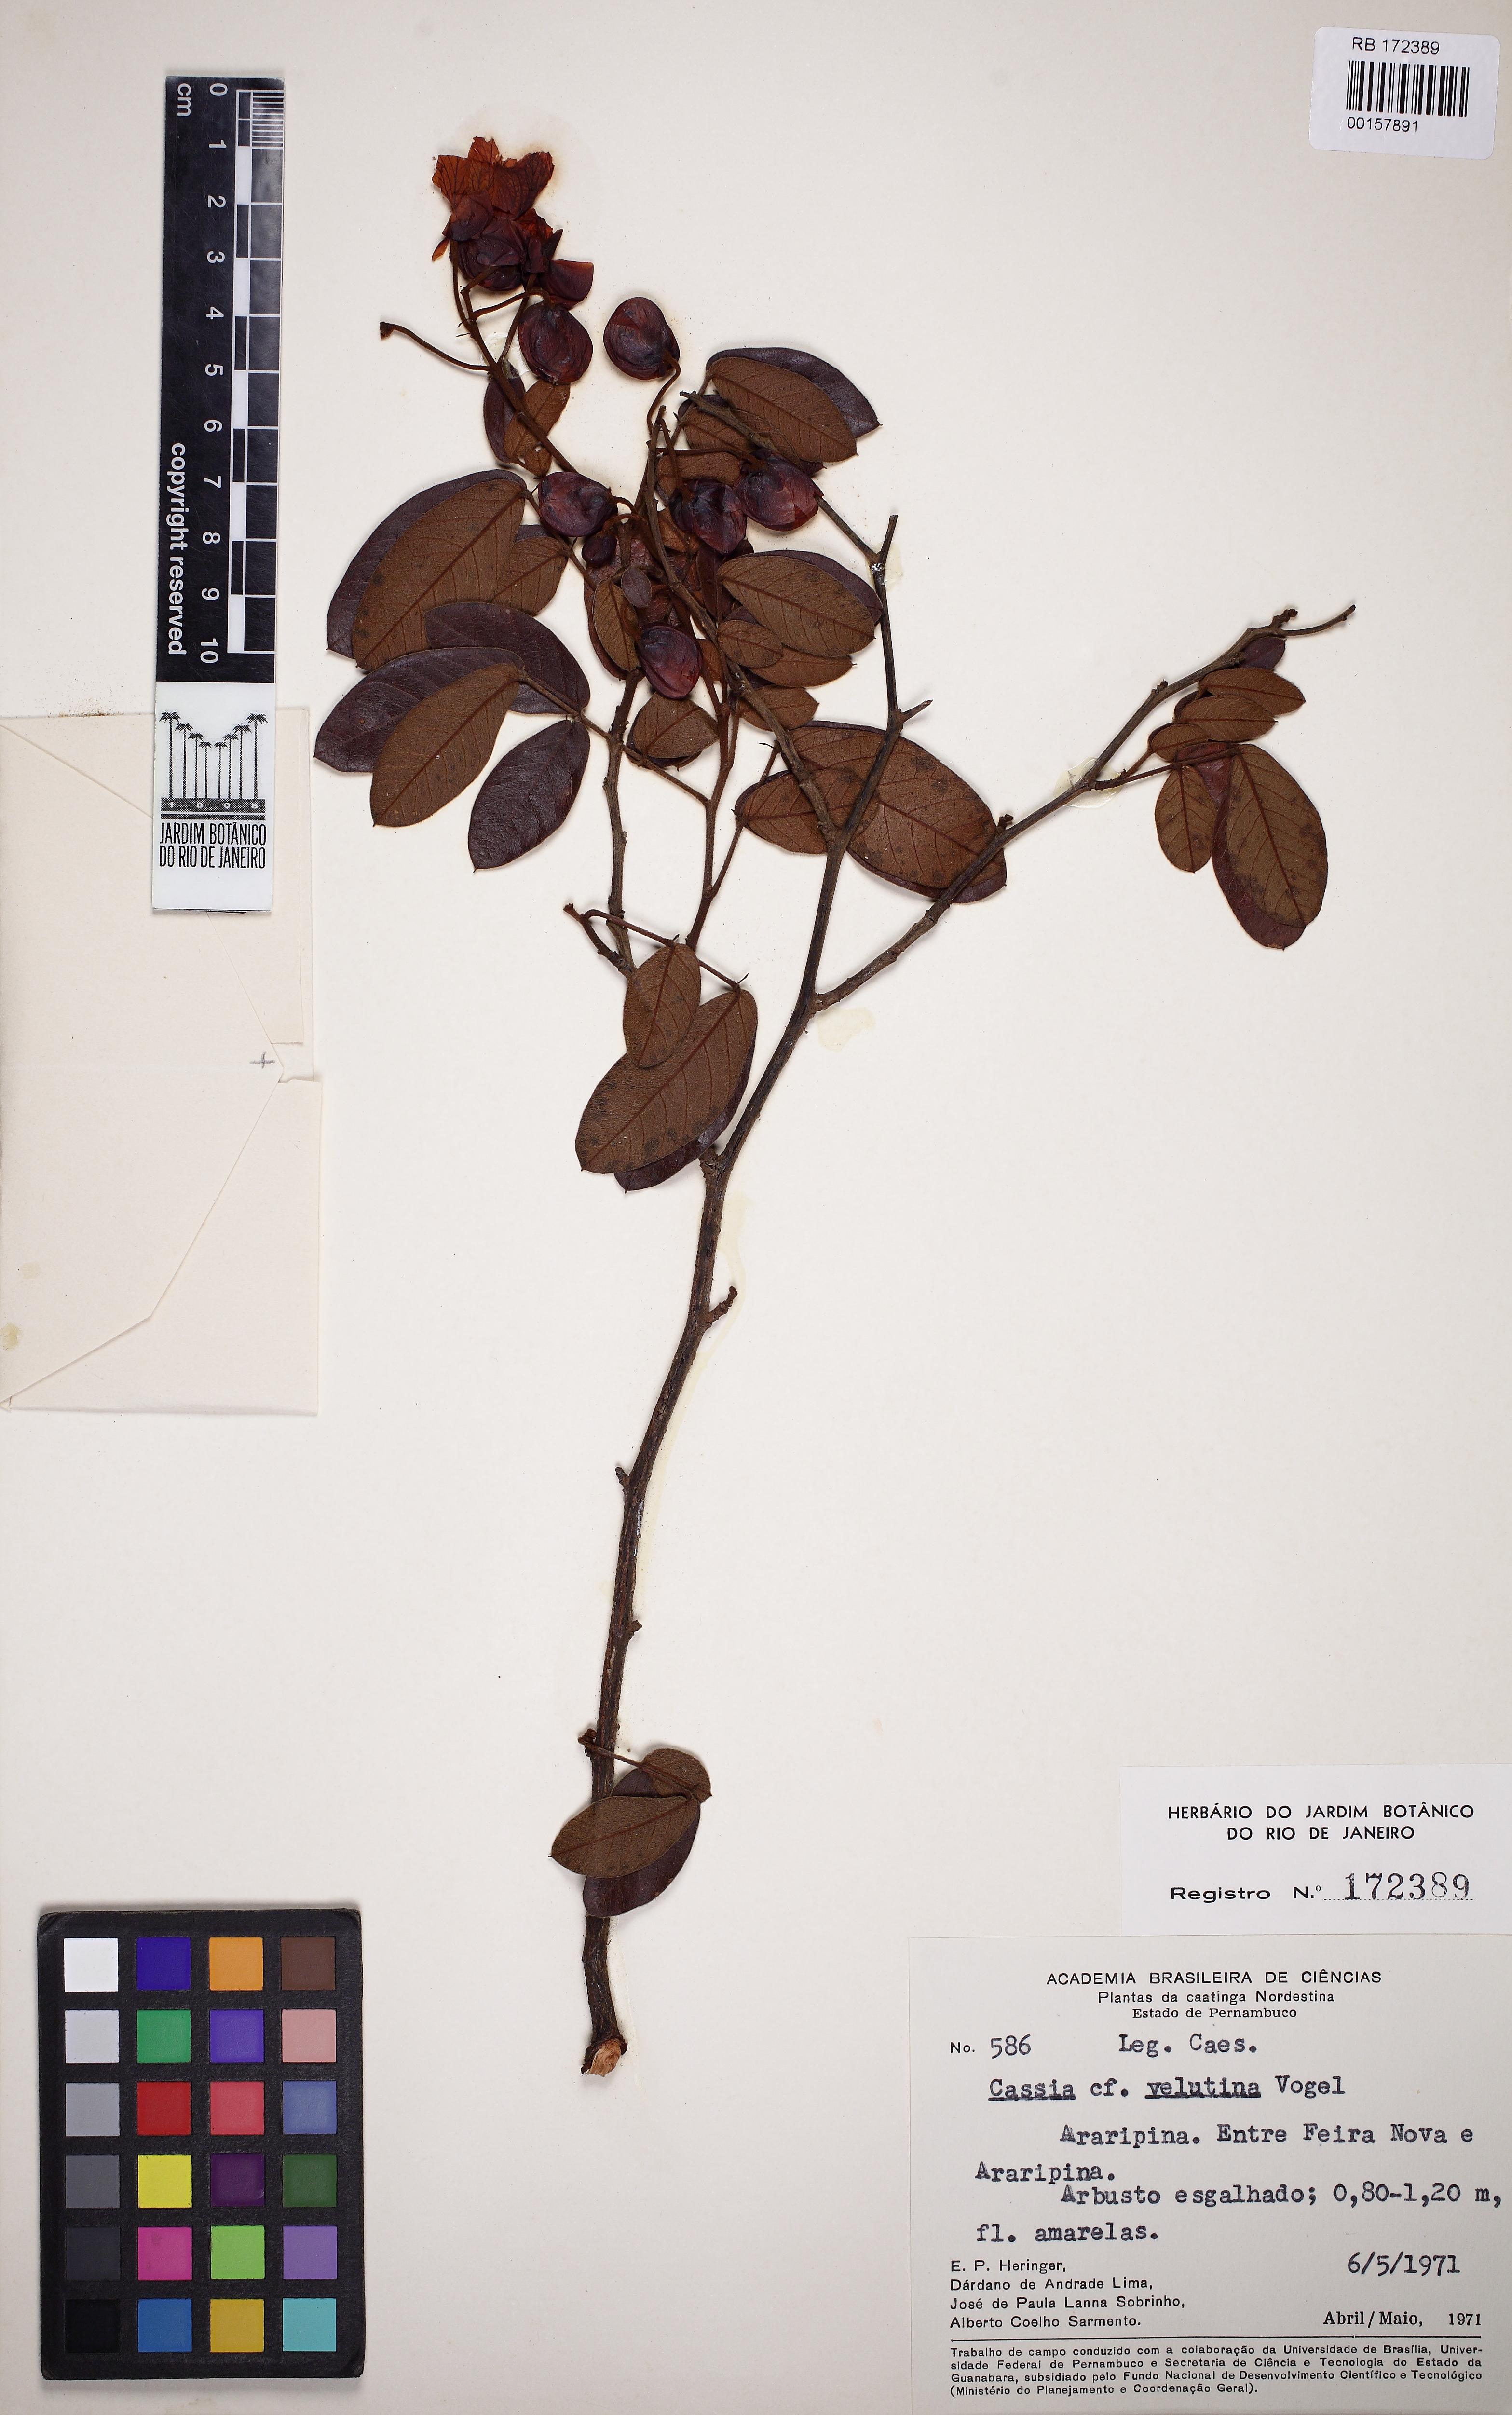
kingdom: Plantae
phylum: Tracheophyta
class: Magnoliopsida
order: Fabales
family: Fabaceae
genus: Cassia
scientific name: Cassia
